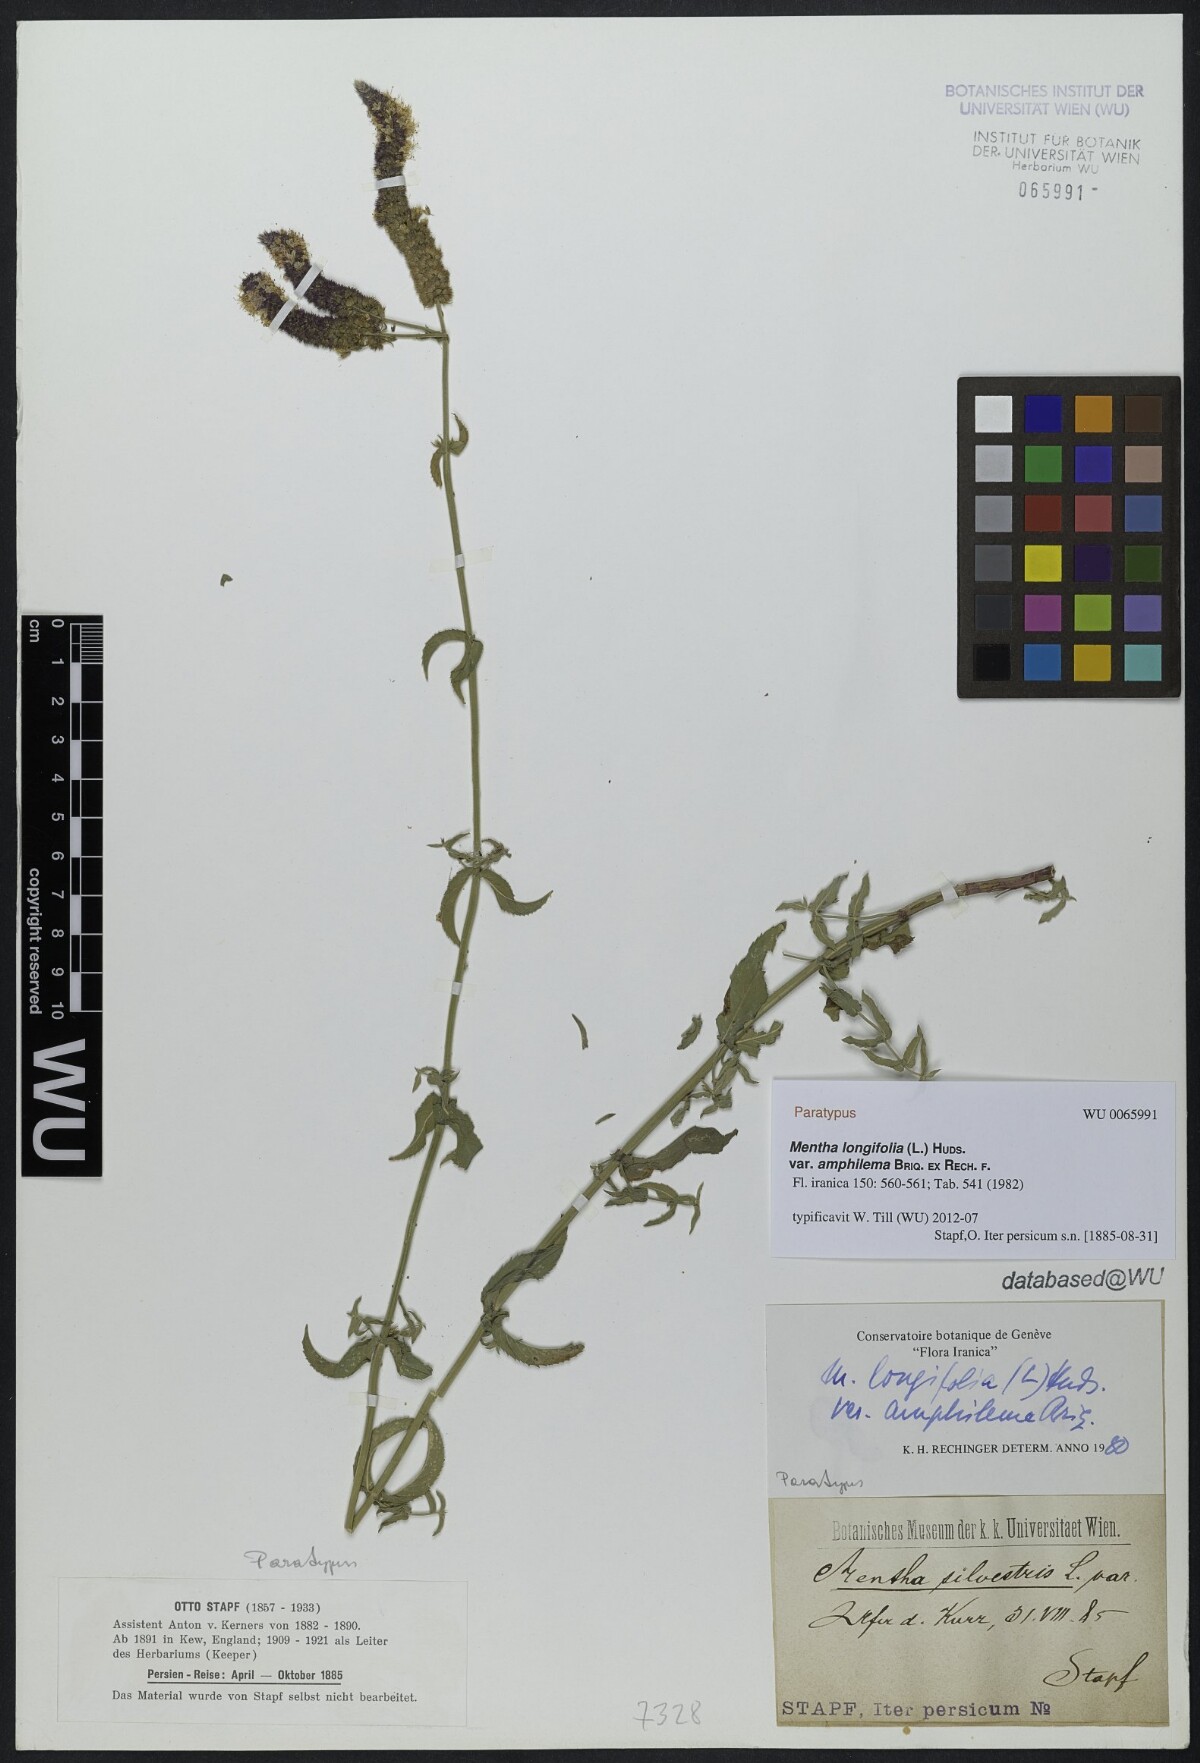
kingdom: Plantae
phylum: Tracheophyta
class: Magnoliopsida
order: Lamiales
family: Lamiaceae
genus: Mentha
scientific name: Mentha longifolia
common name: Horse mint
